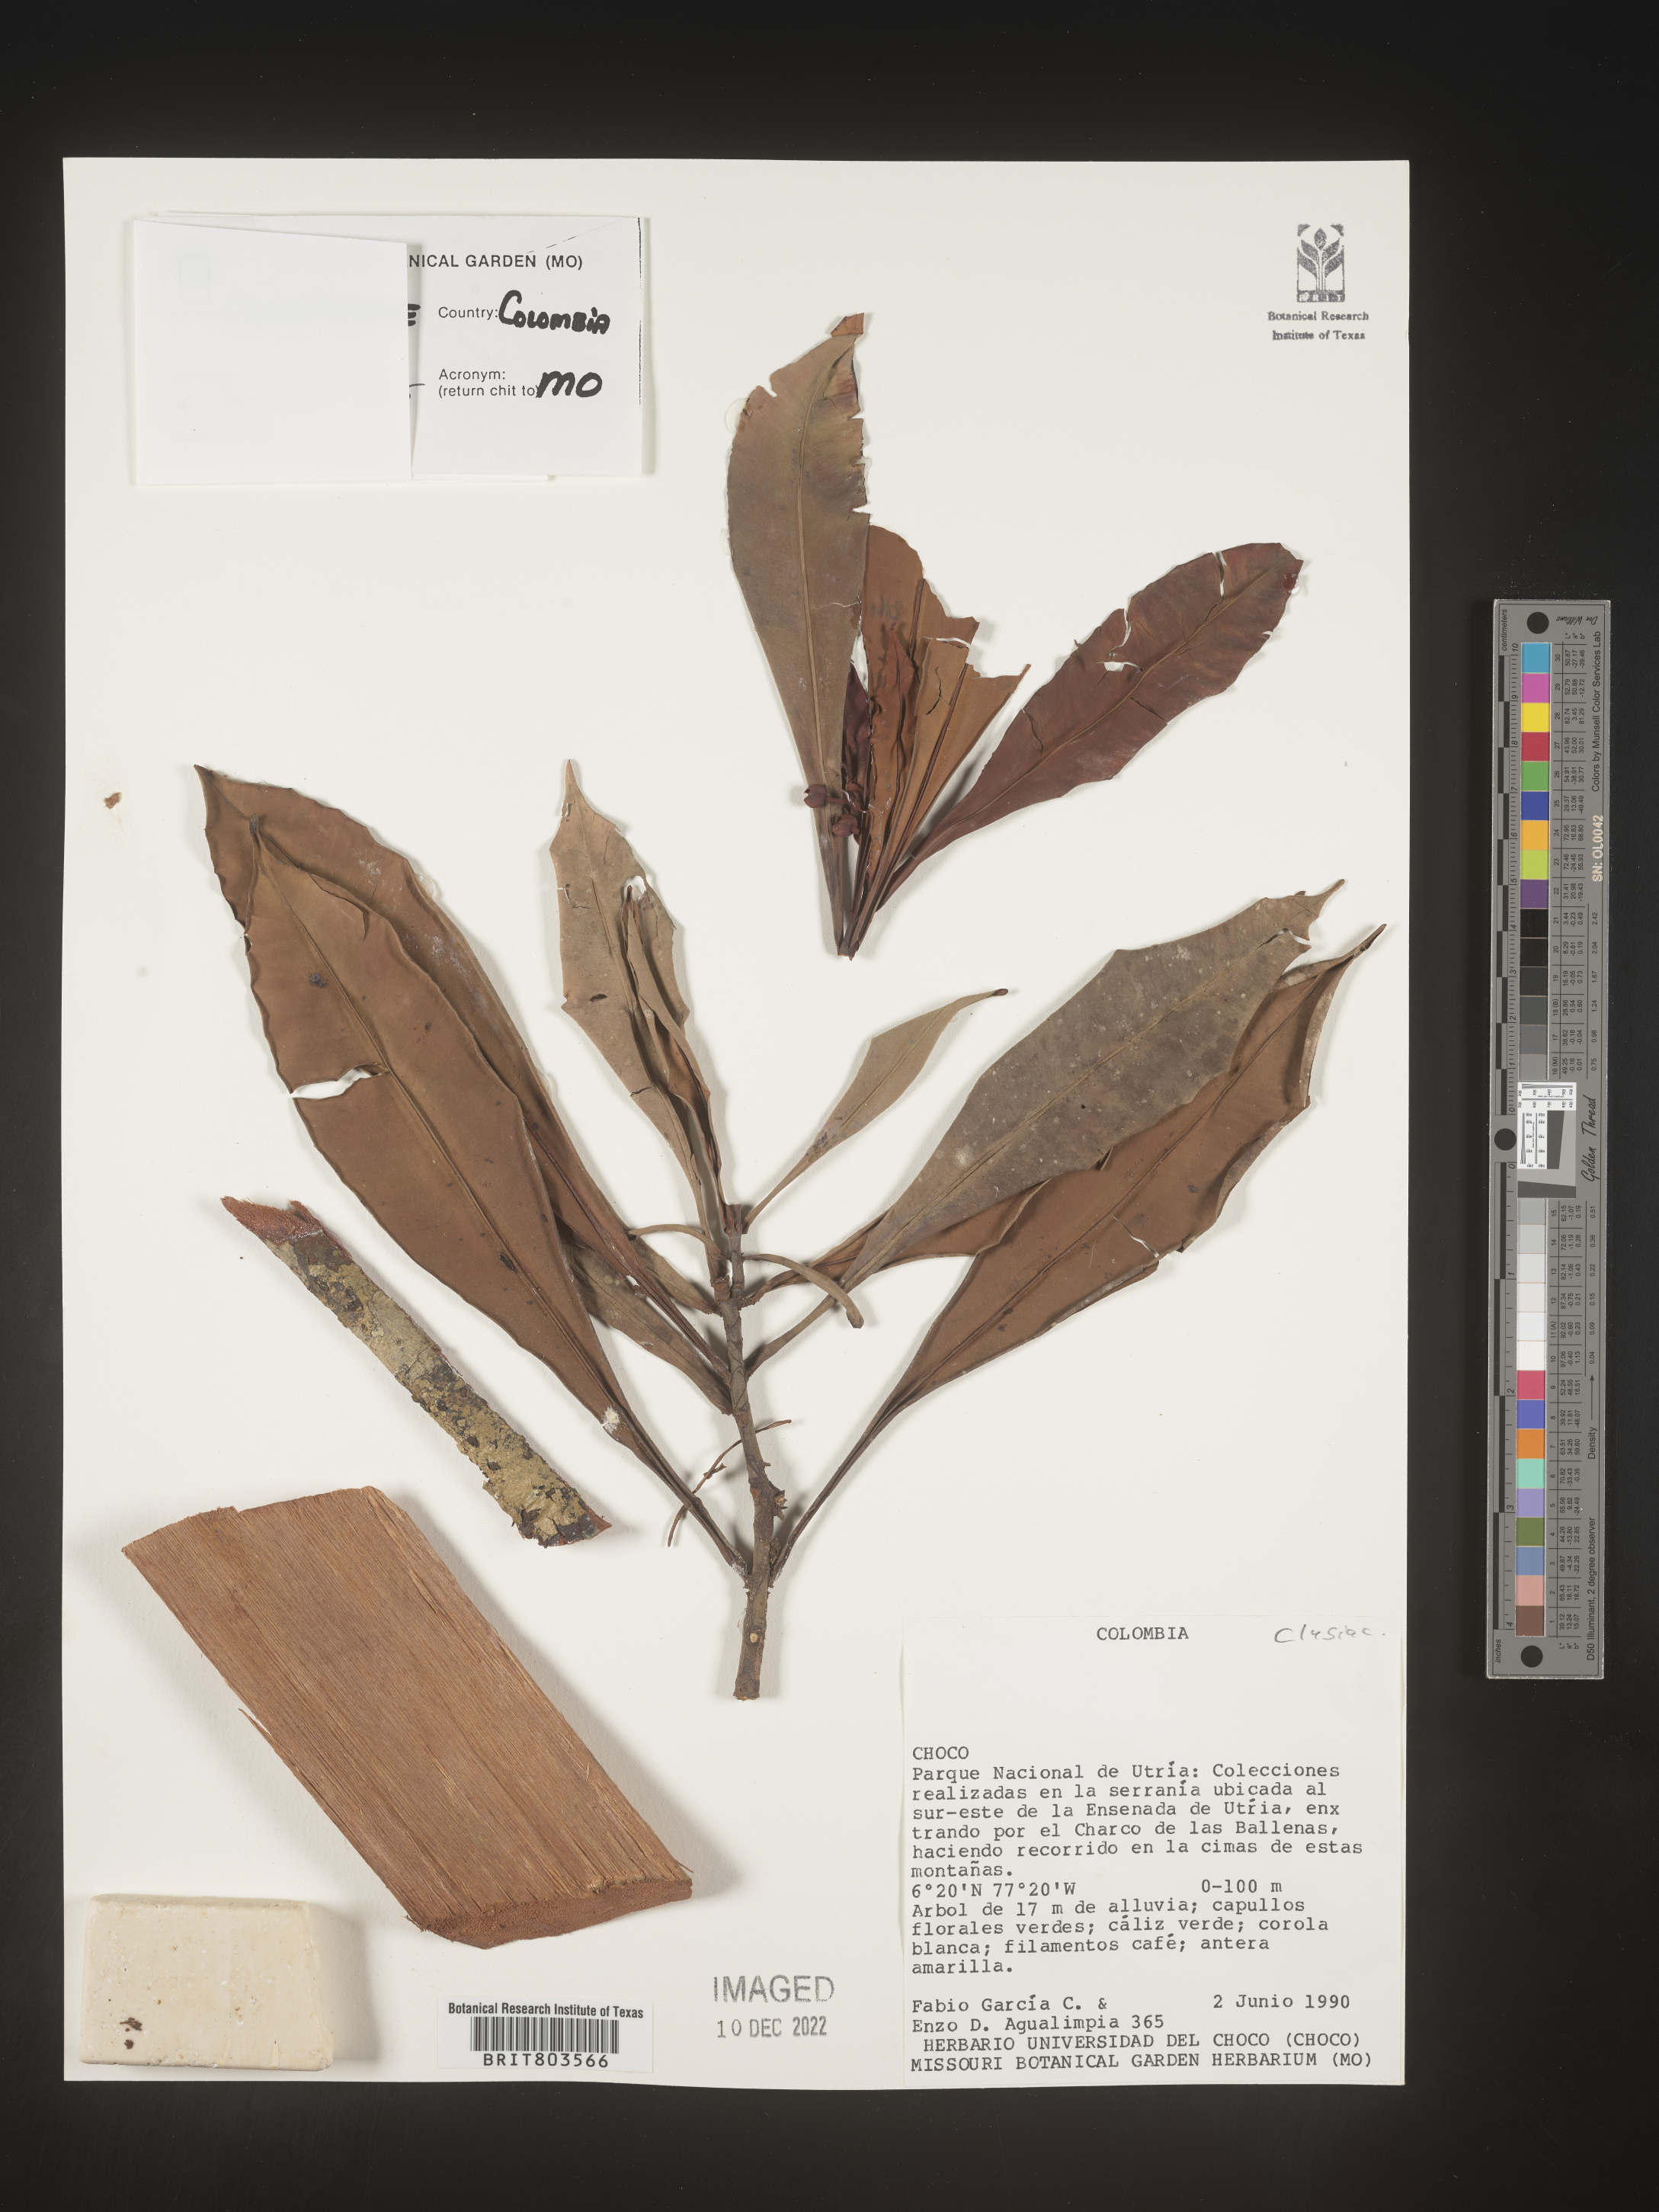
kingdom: Plantae
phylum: Tracheophyta
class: Magnoliopsida
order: Malpighiales
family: Clusiaceae
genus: Tovomita
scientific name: Tovomita
